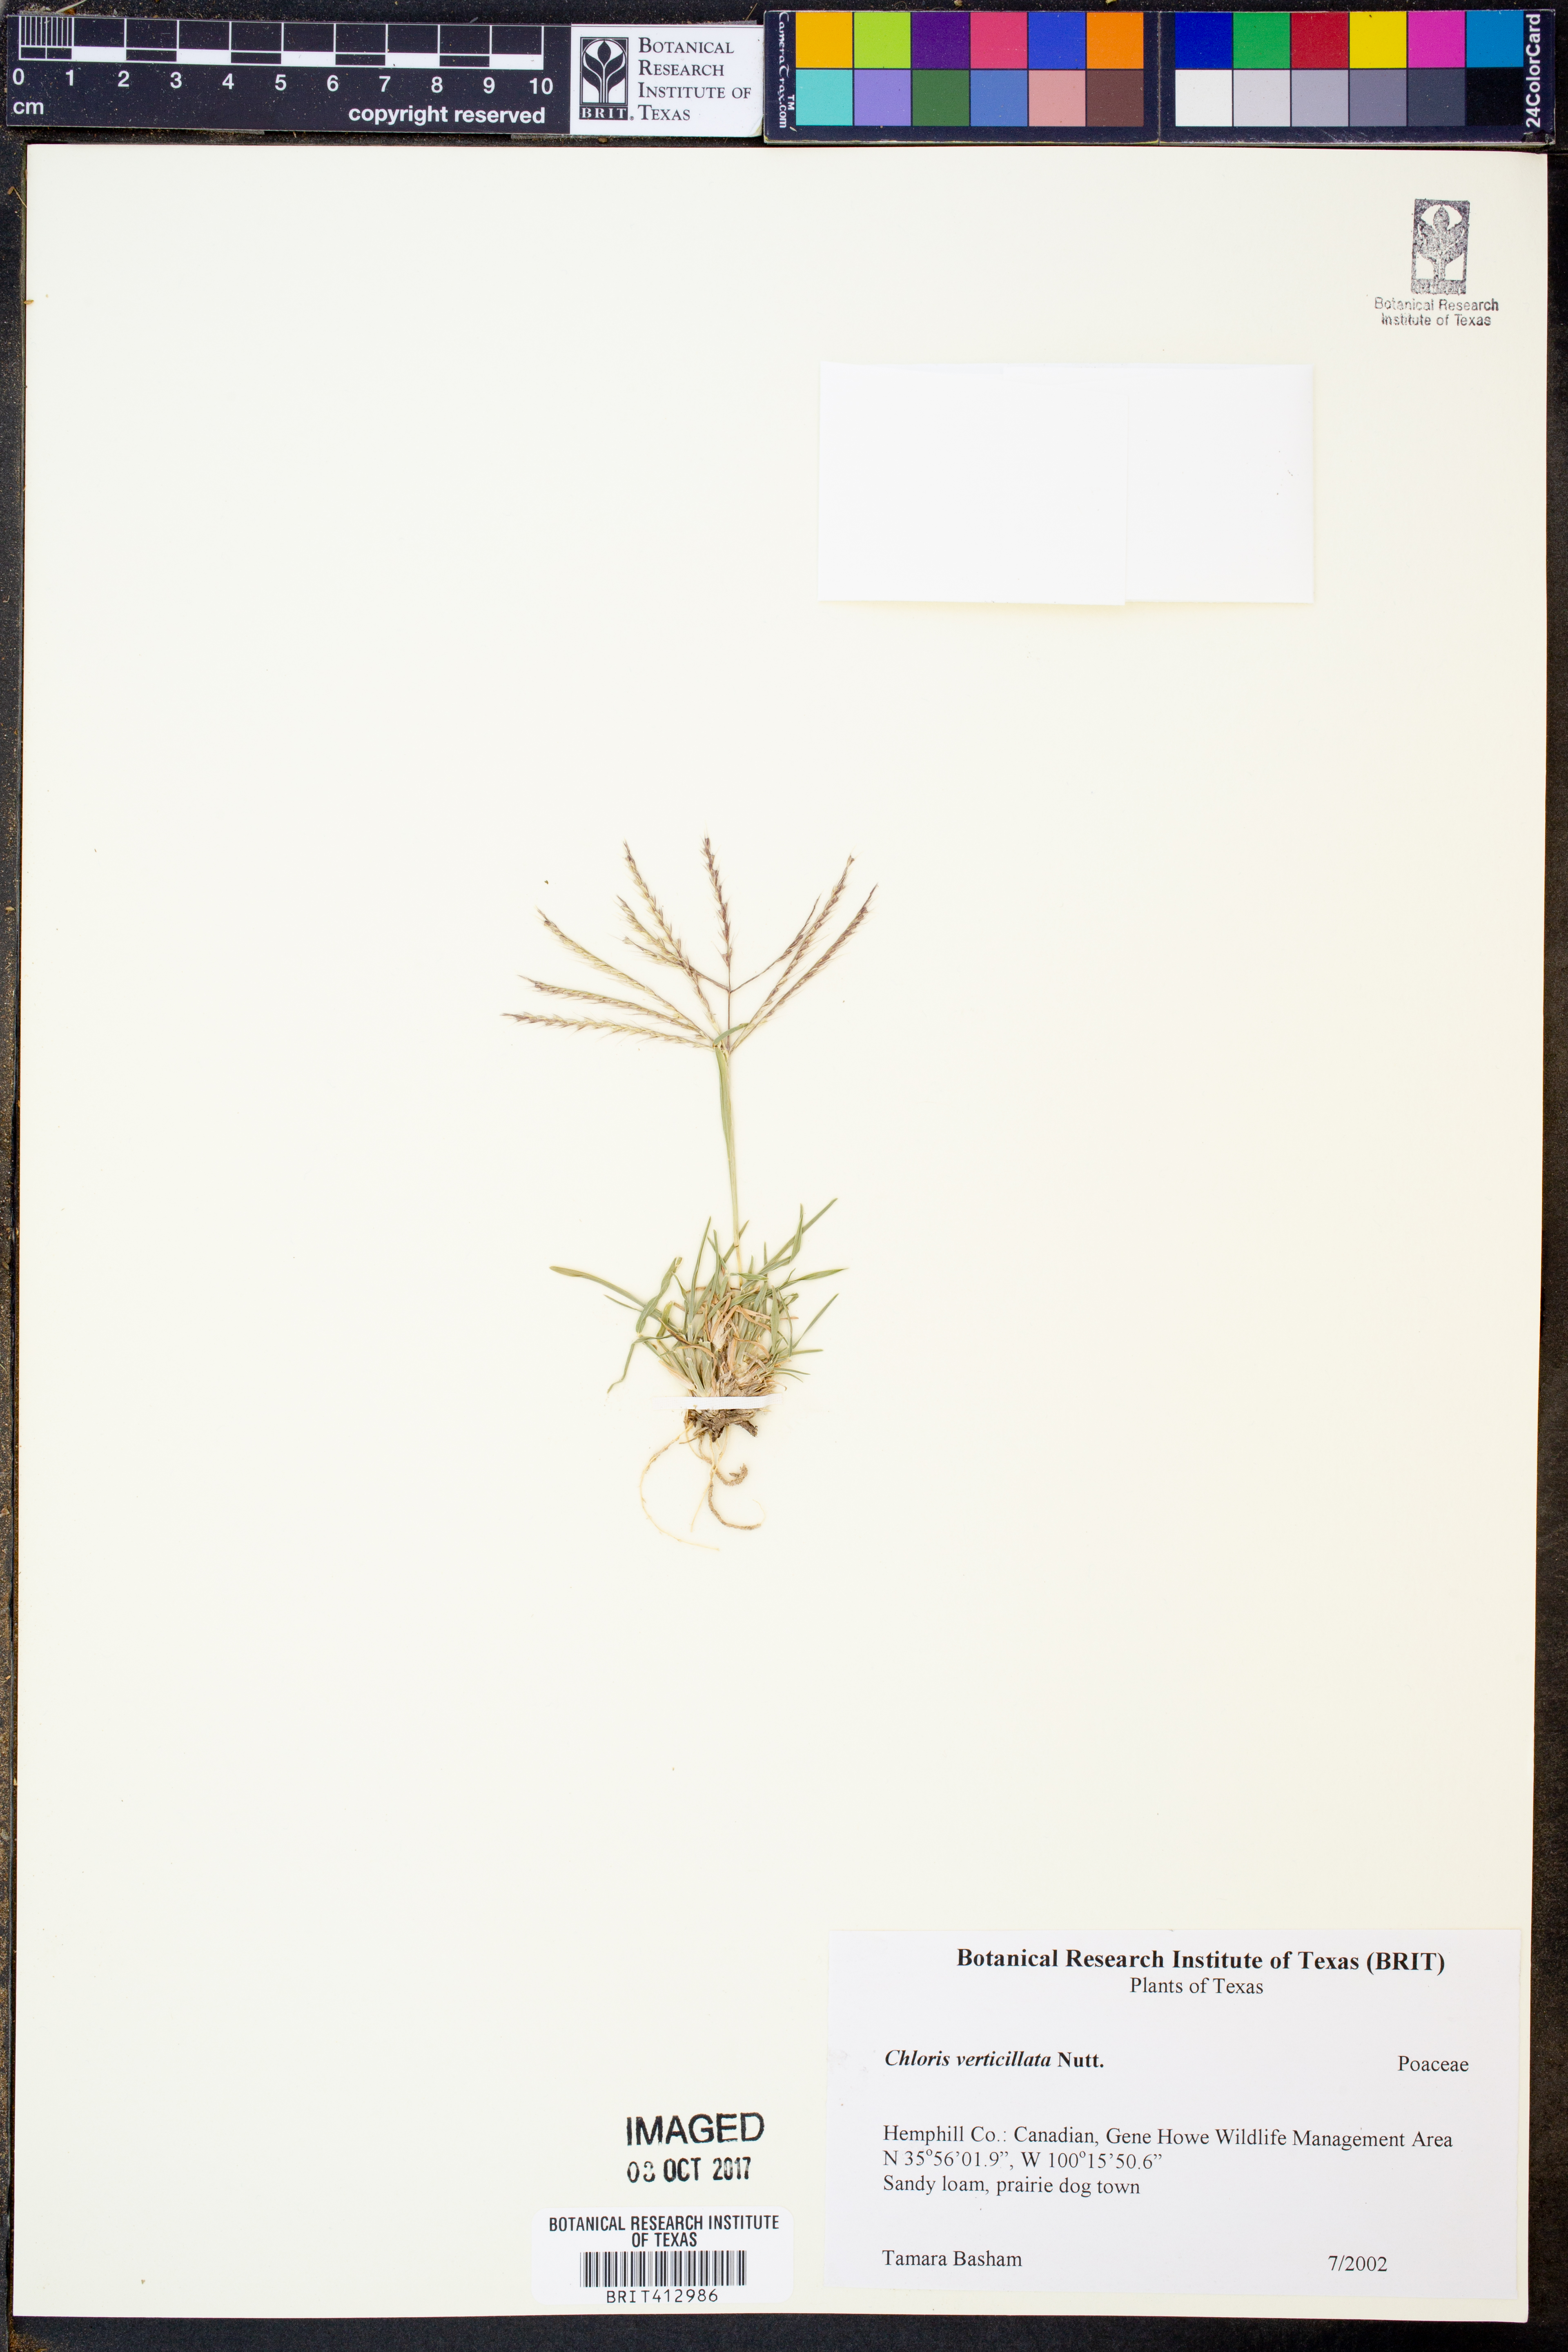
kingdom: Plantae
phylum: Tracheophyta
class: Liliopsida
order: Poales
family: Poaceae
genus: Chloris
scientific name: Chloris verticillata
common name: Tumble windmill grass
